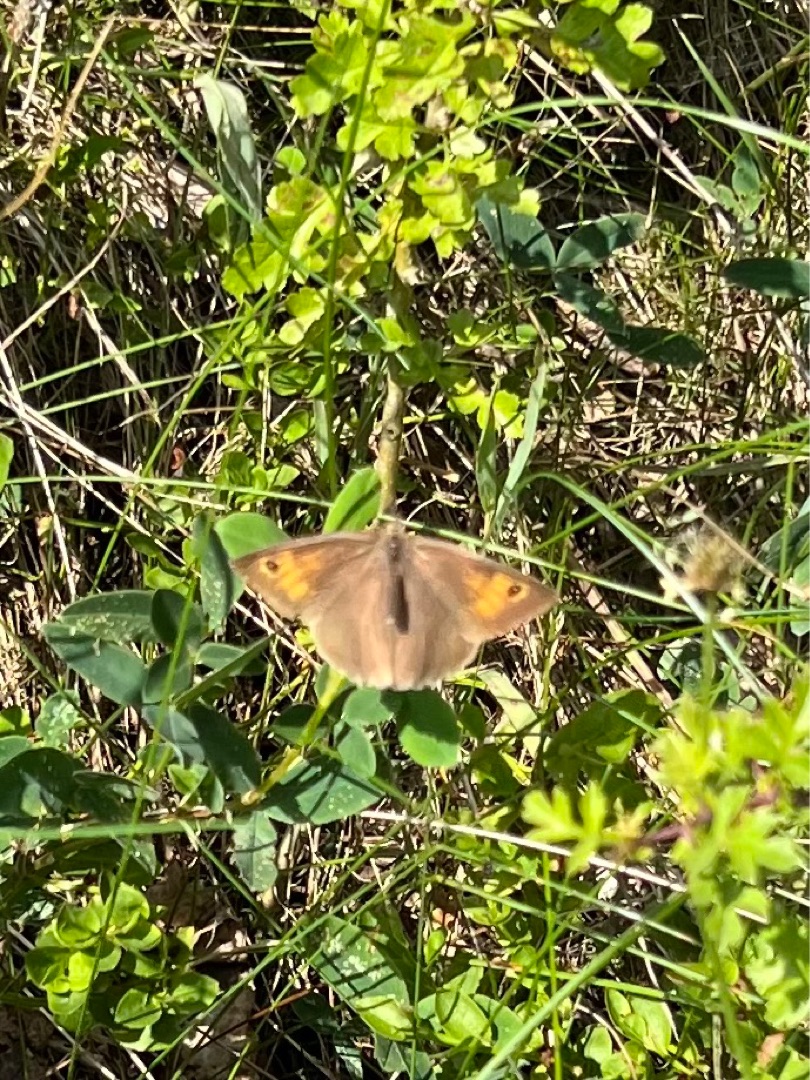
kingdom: Animalia
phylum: Arthropoda
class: Insecta
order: Lepidoptera
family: Nymphalidae
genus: Maniola
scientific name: Maniola jurtina
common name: Græsrandøje
